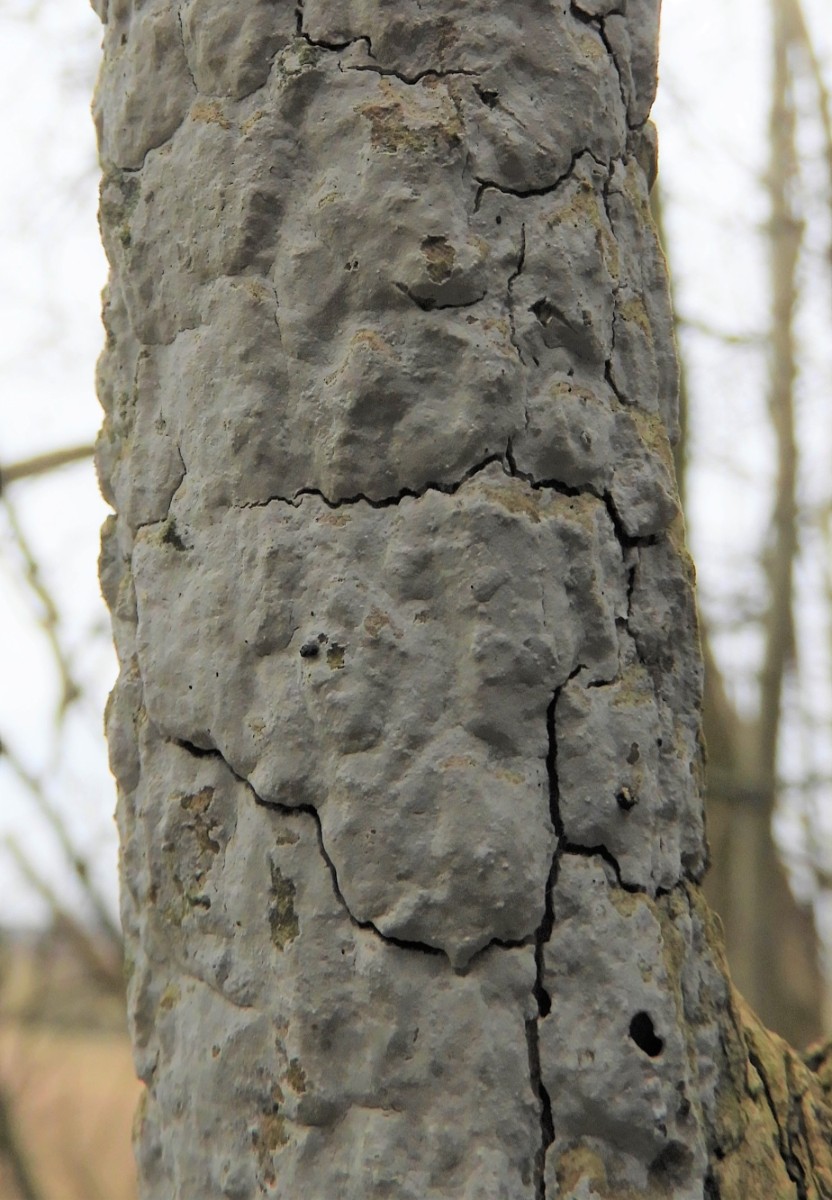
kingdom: Fungi
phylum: Basidiomycota
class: Agaricomycetes
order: Corticiales
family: Corticiaceae
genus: Lyomyces
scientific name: Lyomyces sambuci
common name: almindelig hyldehinde
